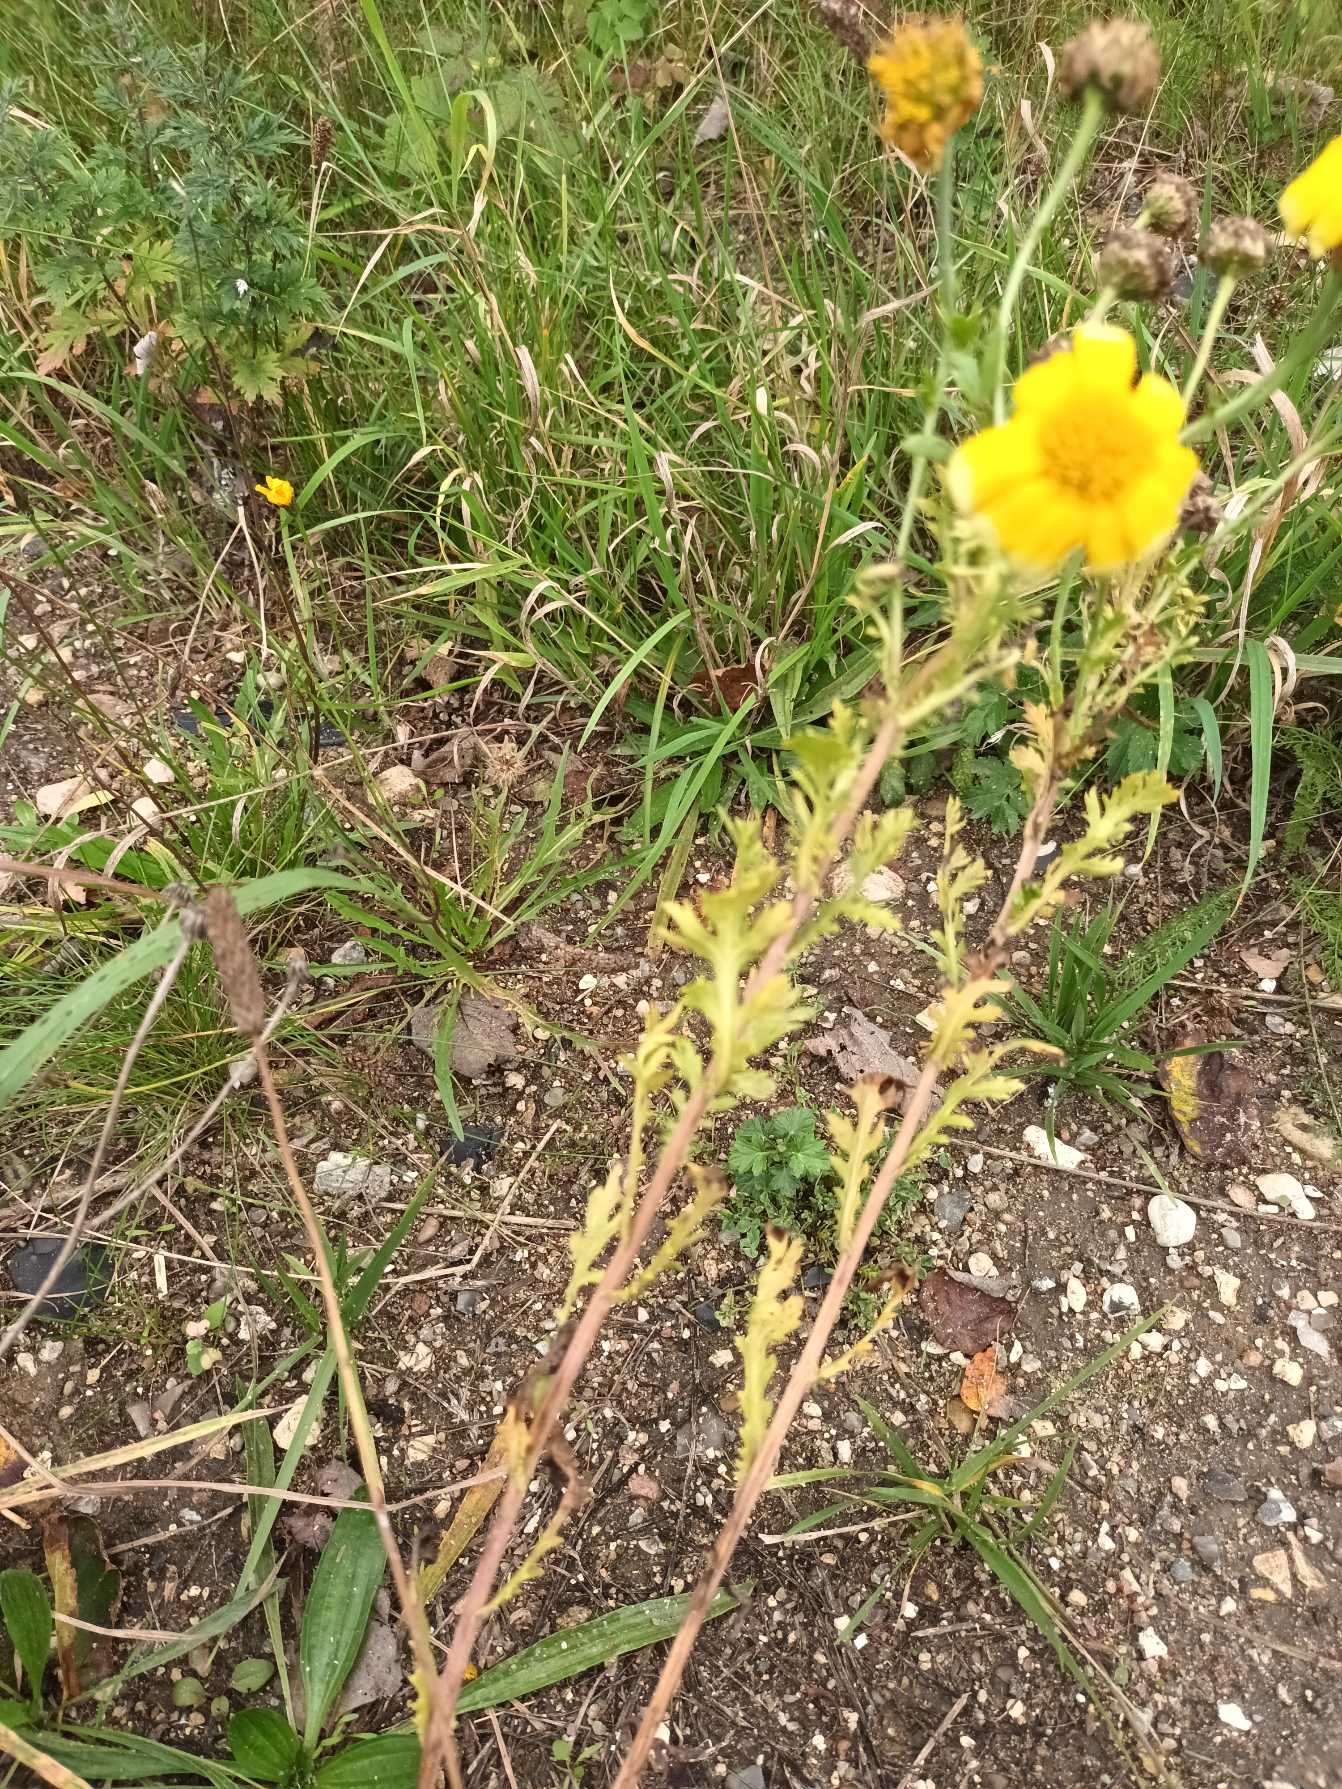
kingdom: Plantae
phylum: Tracheophyta
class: Magnoliopsida
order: Asterales
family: Asteraceae
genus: Glebionis
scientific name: Glebionis carinata
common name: Flerfarvet okseøje
